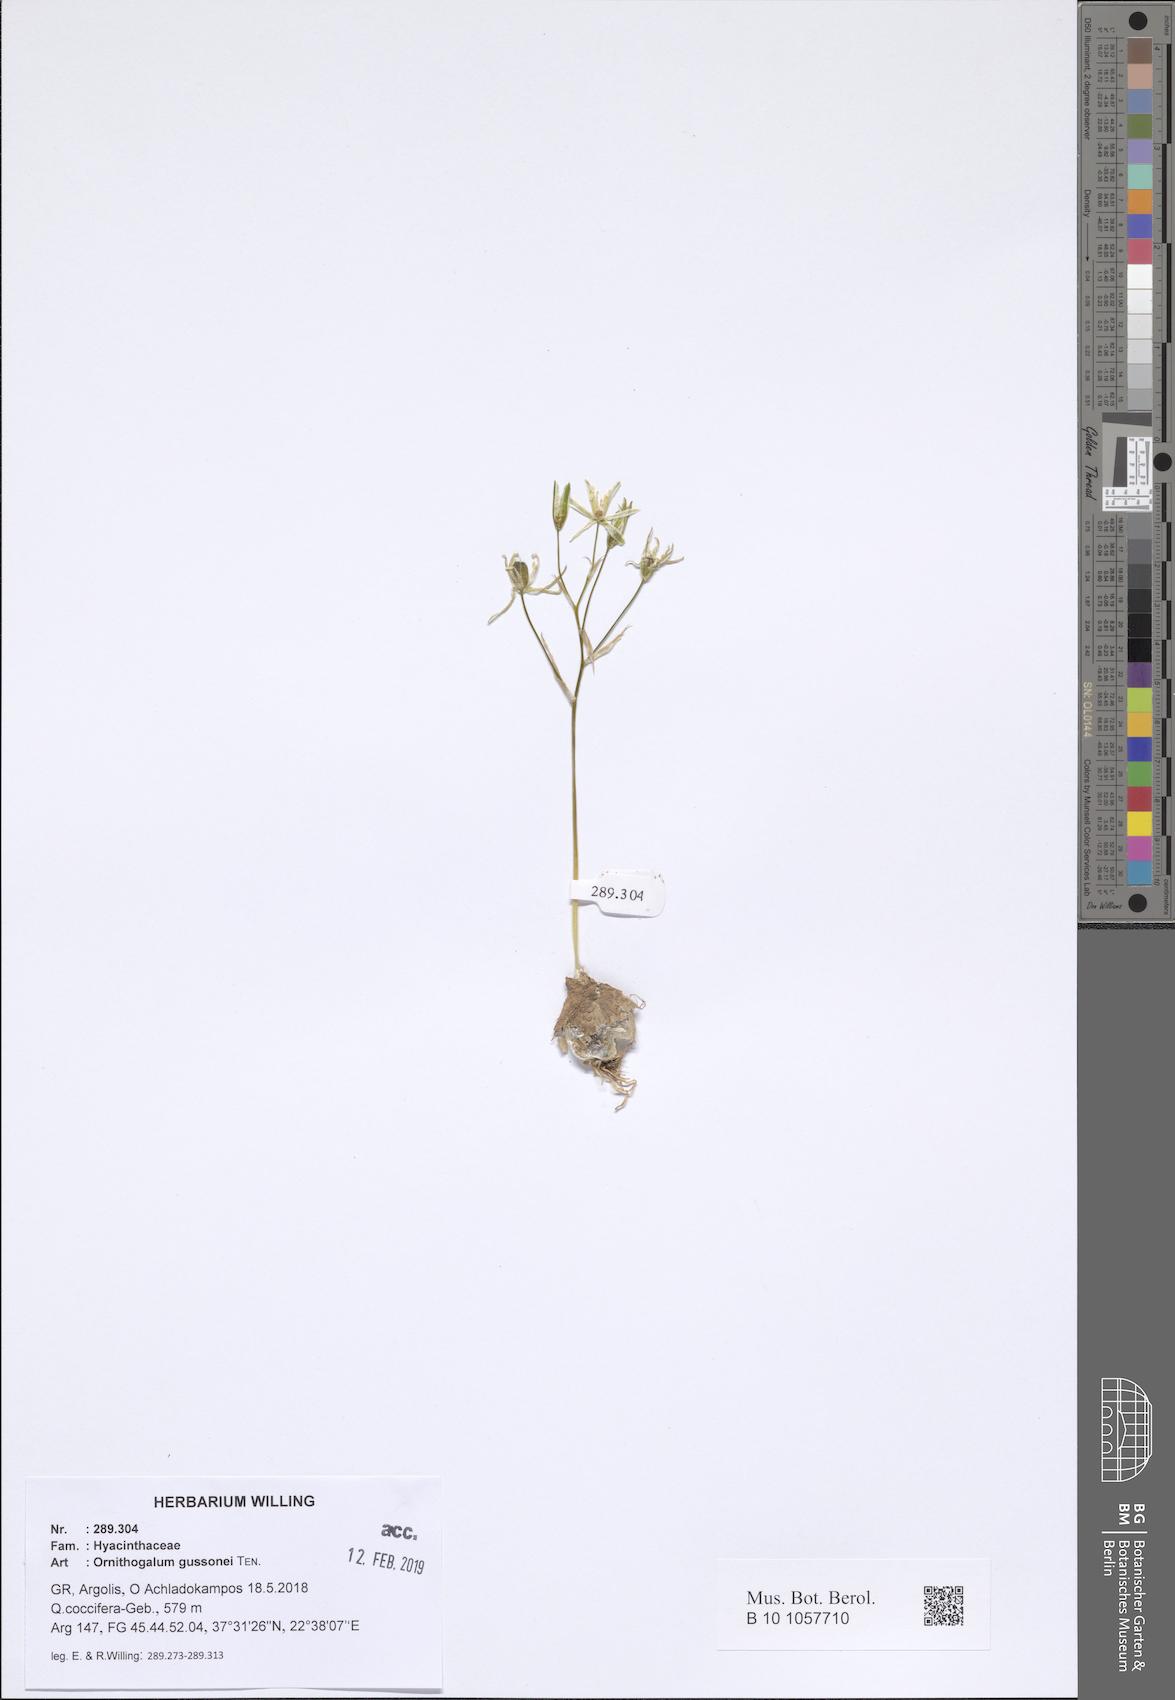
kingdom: Plantae
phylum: Tracheophyta
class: Liliopsida
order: Asparagales
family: Asparagaceae
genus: Ornithogalum
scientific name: Ornithogalum gussonei
